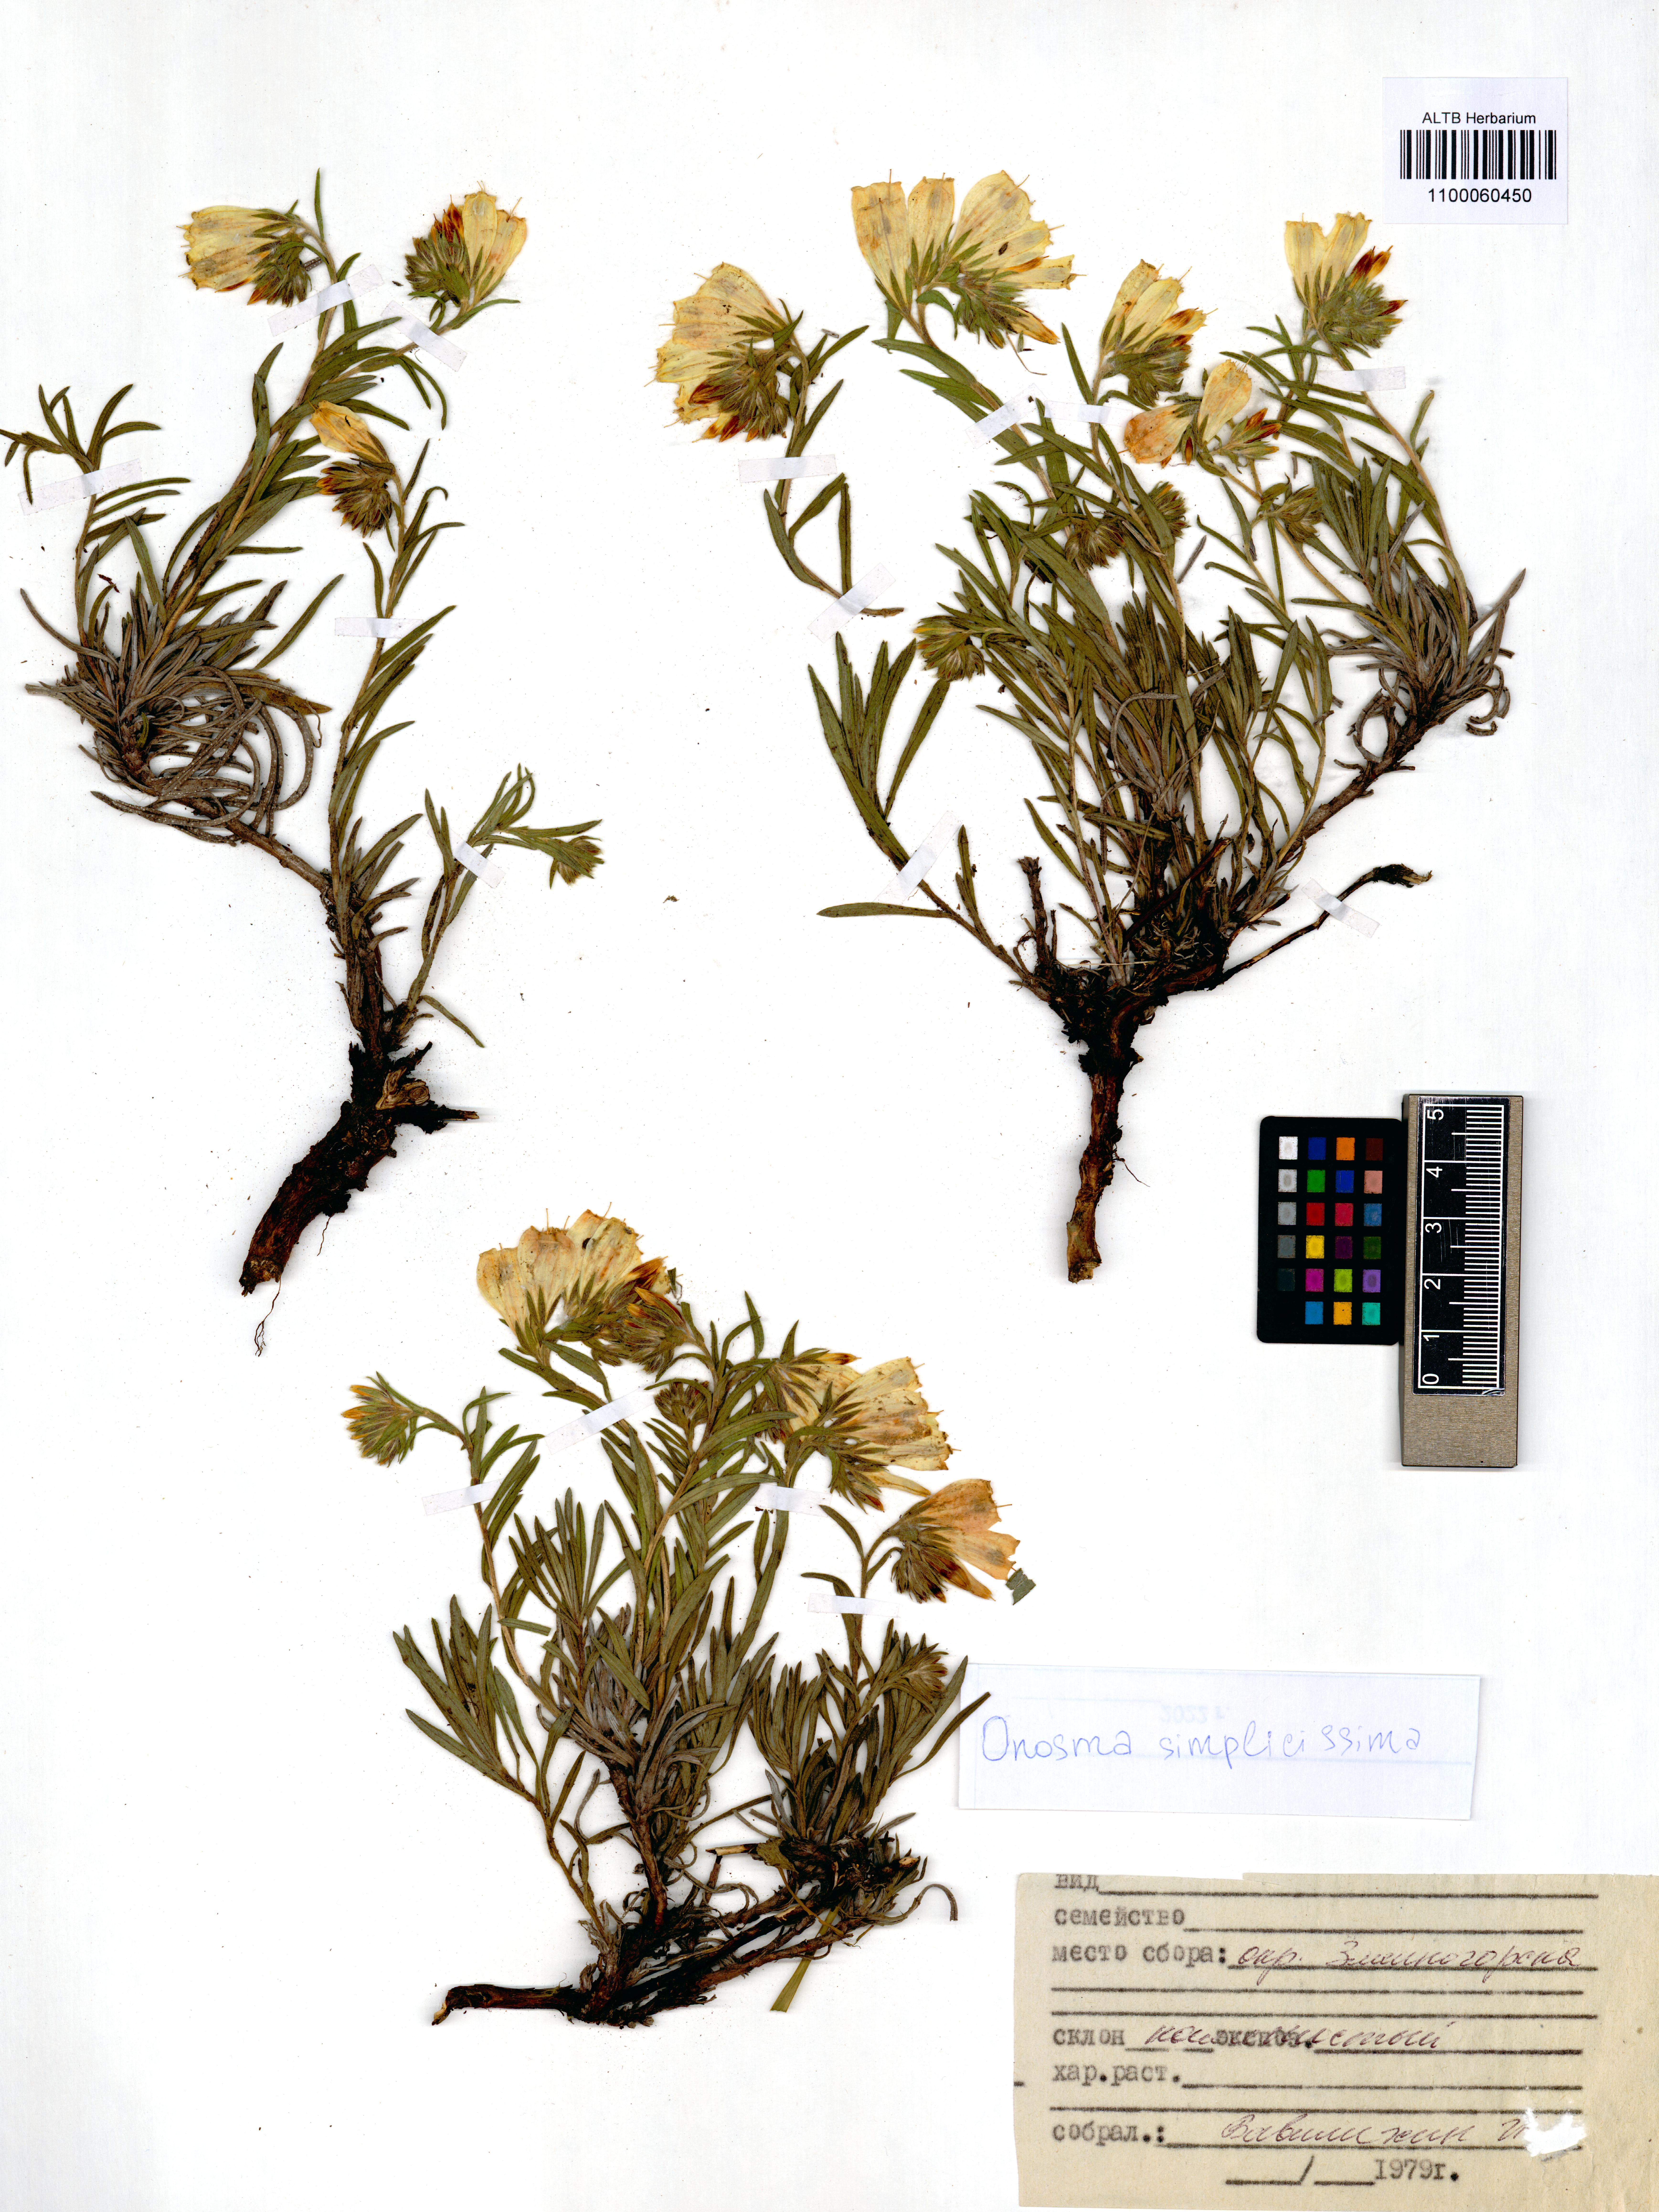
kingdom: Plantae
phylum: Tracheophyta
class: Magnoliopsida
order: Boraginales
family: Boraginaceae
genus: Onosma
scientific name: Onosma simplicissima
